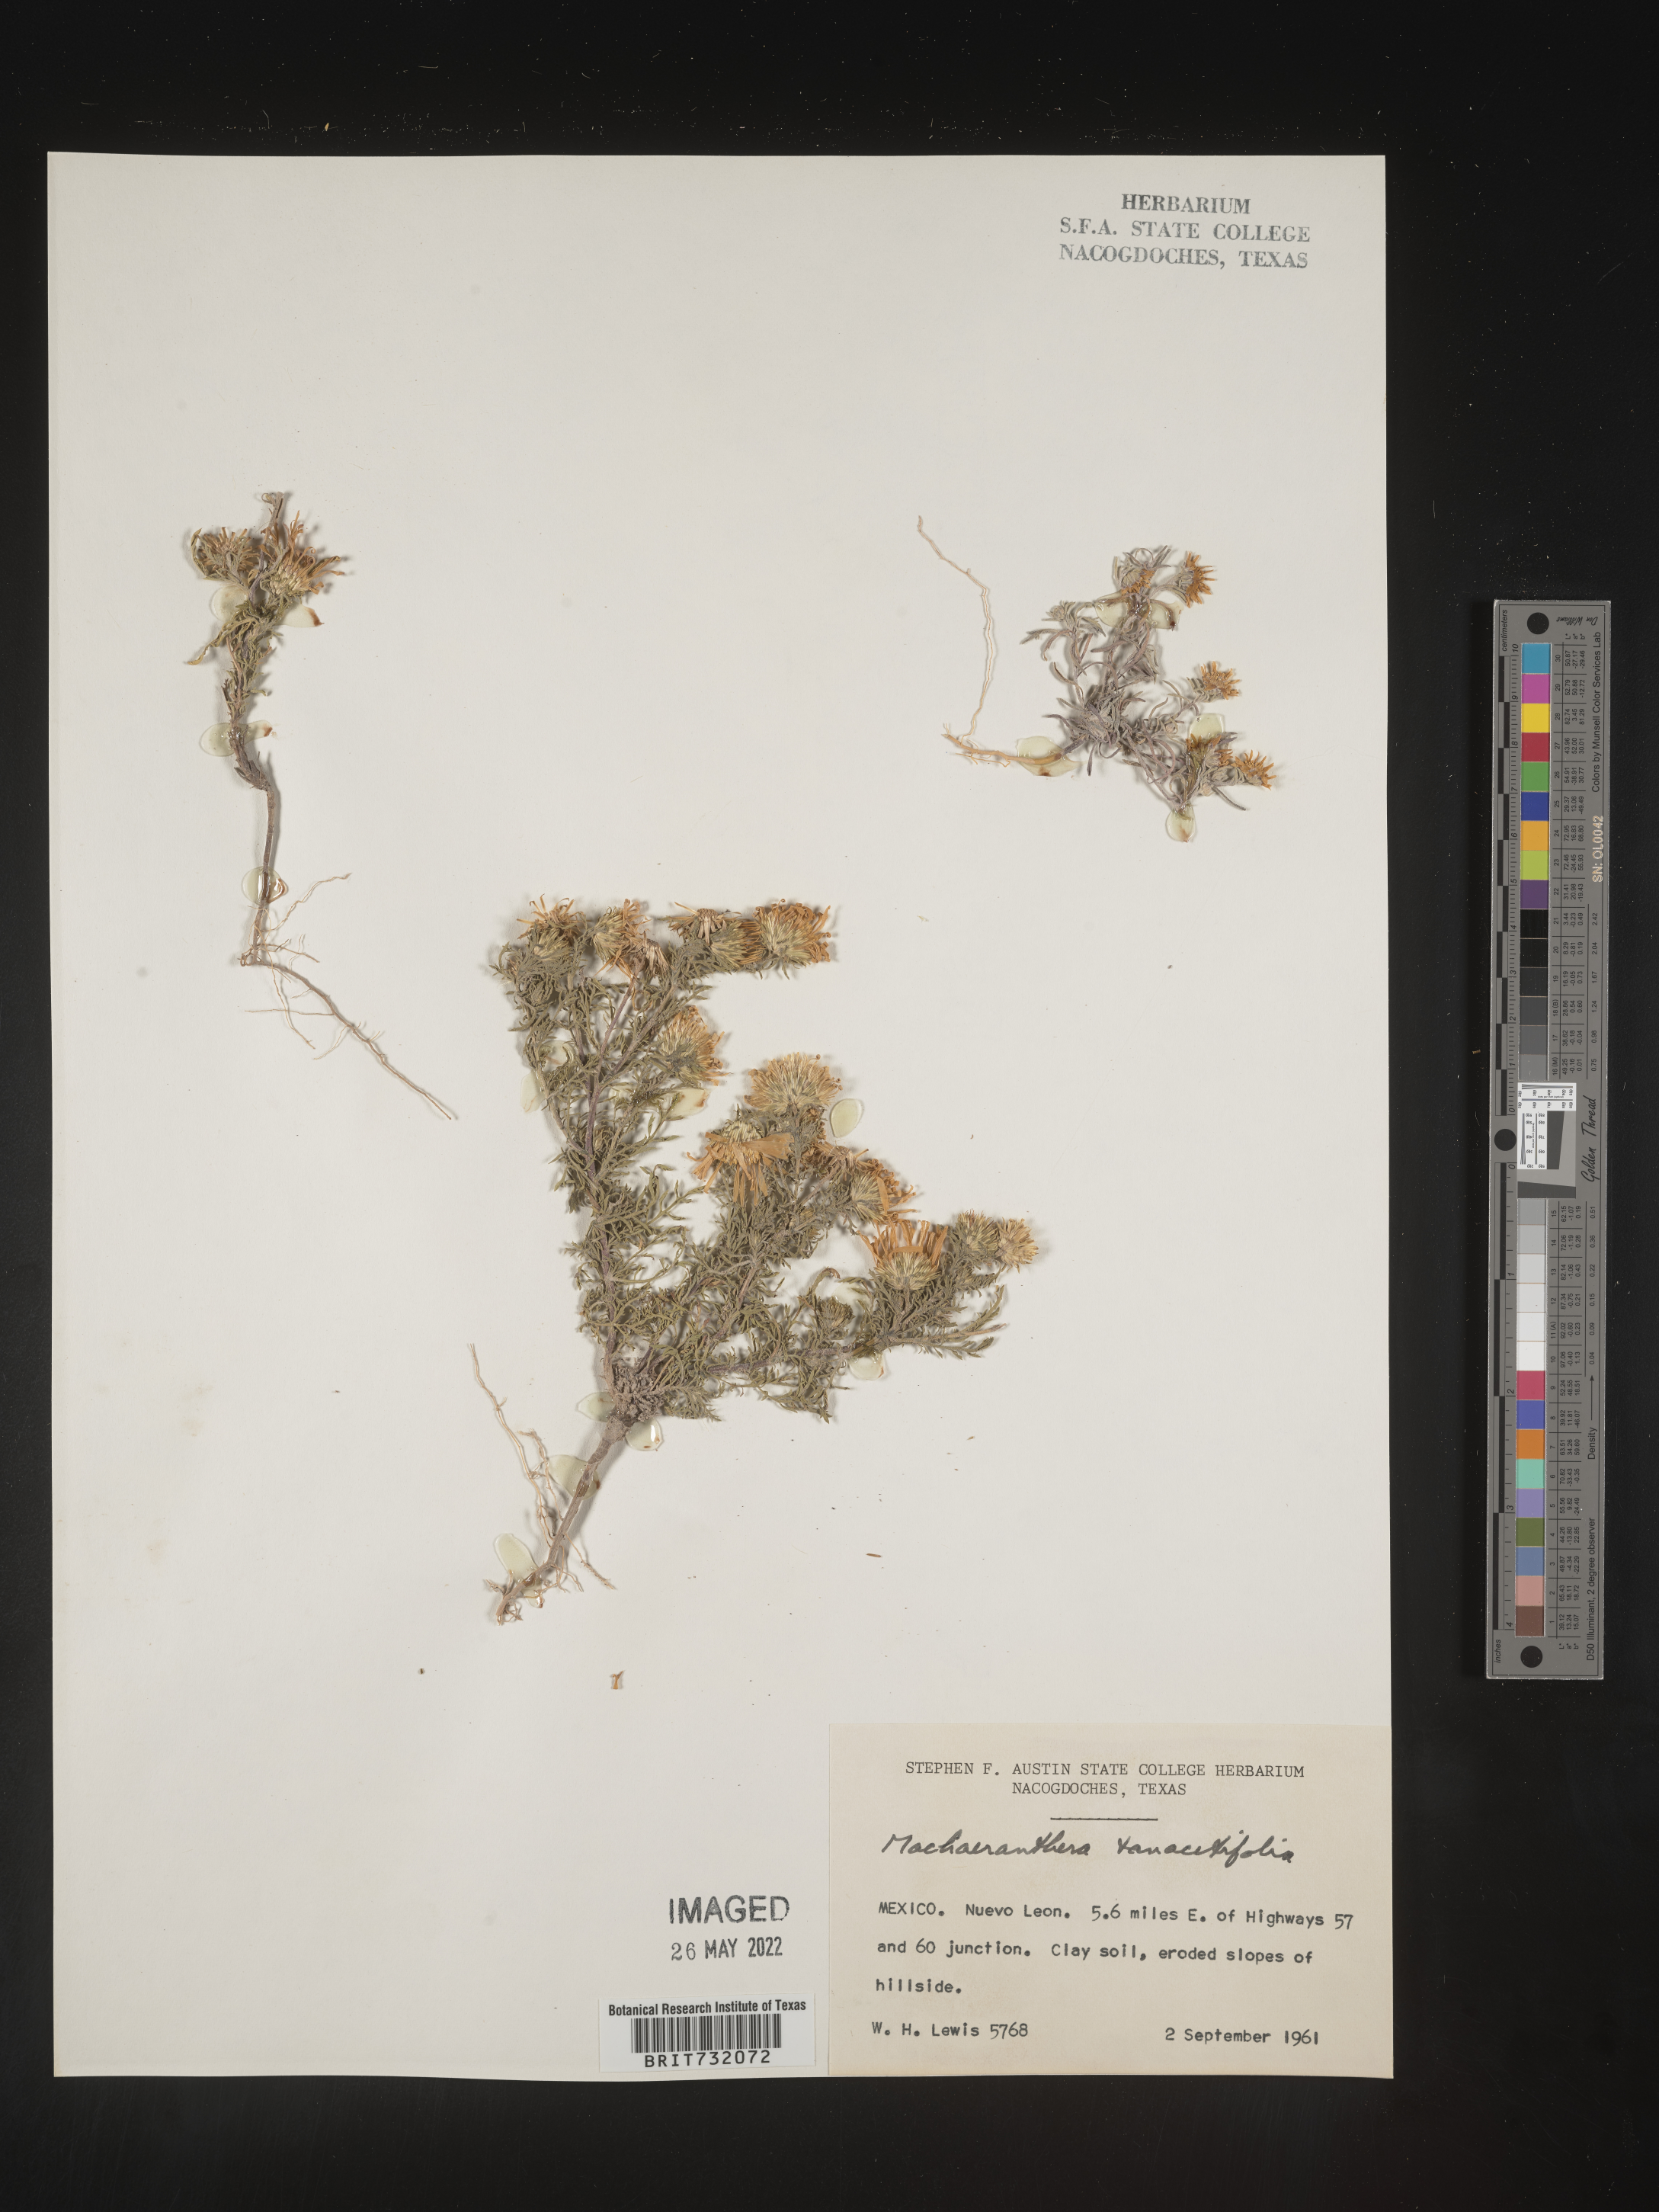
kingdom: Plantae
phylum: Tracheophyta
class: Magnoliopsida
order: Asterales
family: Asteraceae
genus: Machaeranthera
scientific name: Machaeranthera tanacetifolia
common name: Tansy-aster
